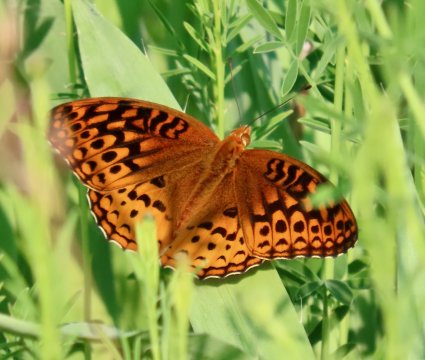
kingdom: Animalia
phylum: Arthropoda
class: Insecta
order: Lepidoptera
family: Nymphalidae
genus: Speyeria
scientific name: Speyeria cybele
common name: Great Spangled Fritillary
